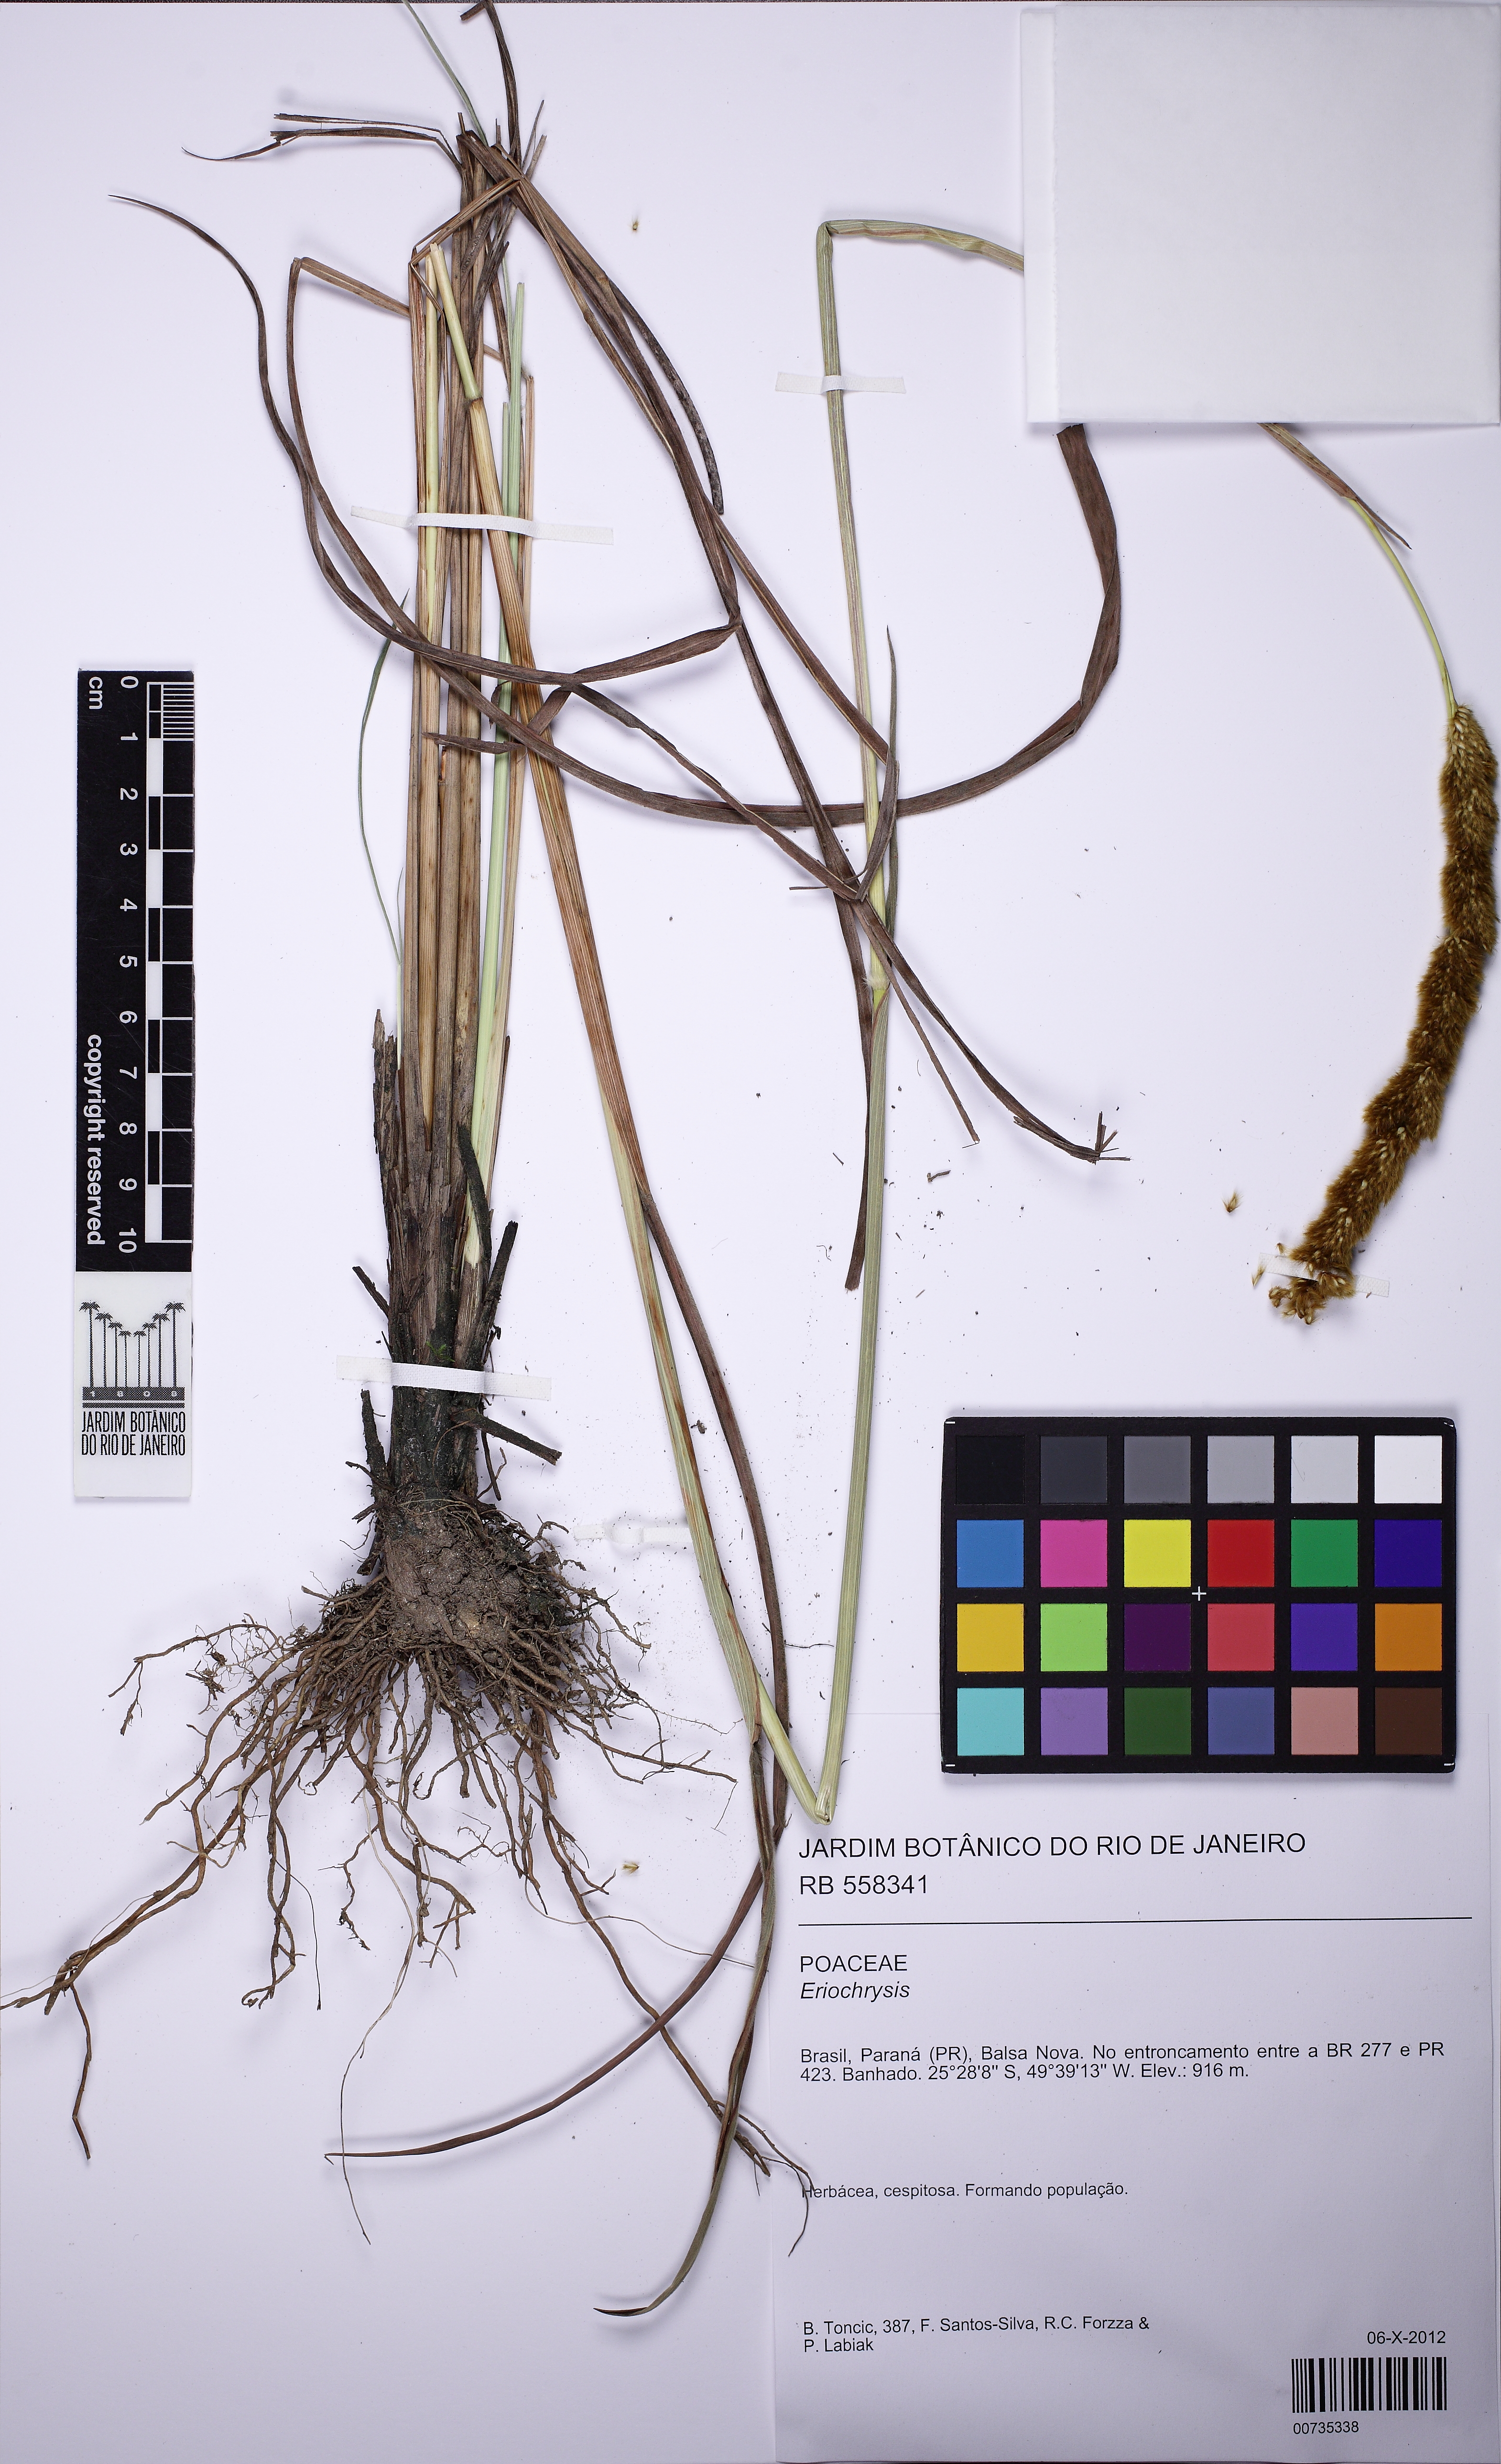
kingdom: Plantae
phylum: Tracheophyta
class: Liliopsida
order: Poales
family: Poaceae
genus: Eriochrysis
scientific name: Eriochrysis
